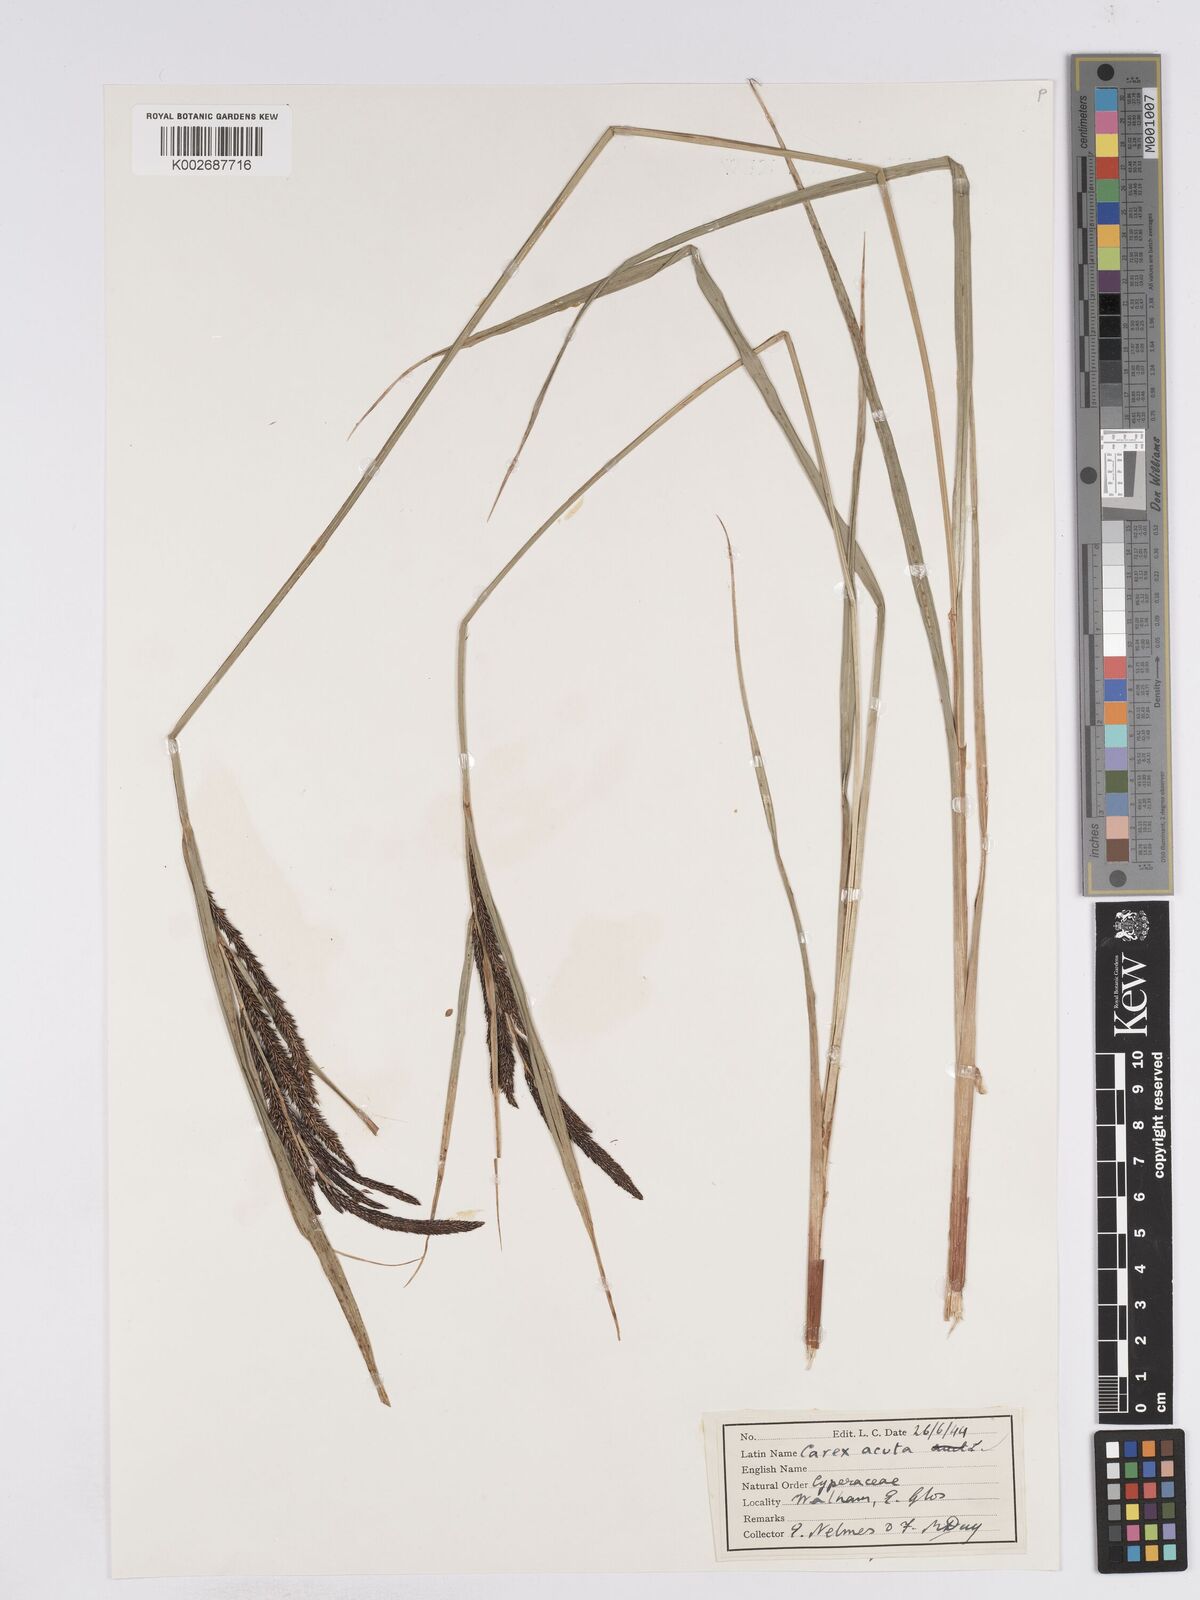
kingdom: Plantae
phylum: Tracheophyta
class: Liliopsida
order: Poales
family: Cyperaceae
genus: Carex
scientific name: Carex acuta
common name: Slender tufted-sedge
